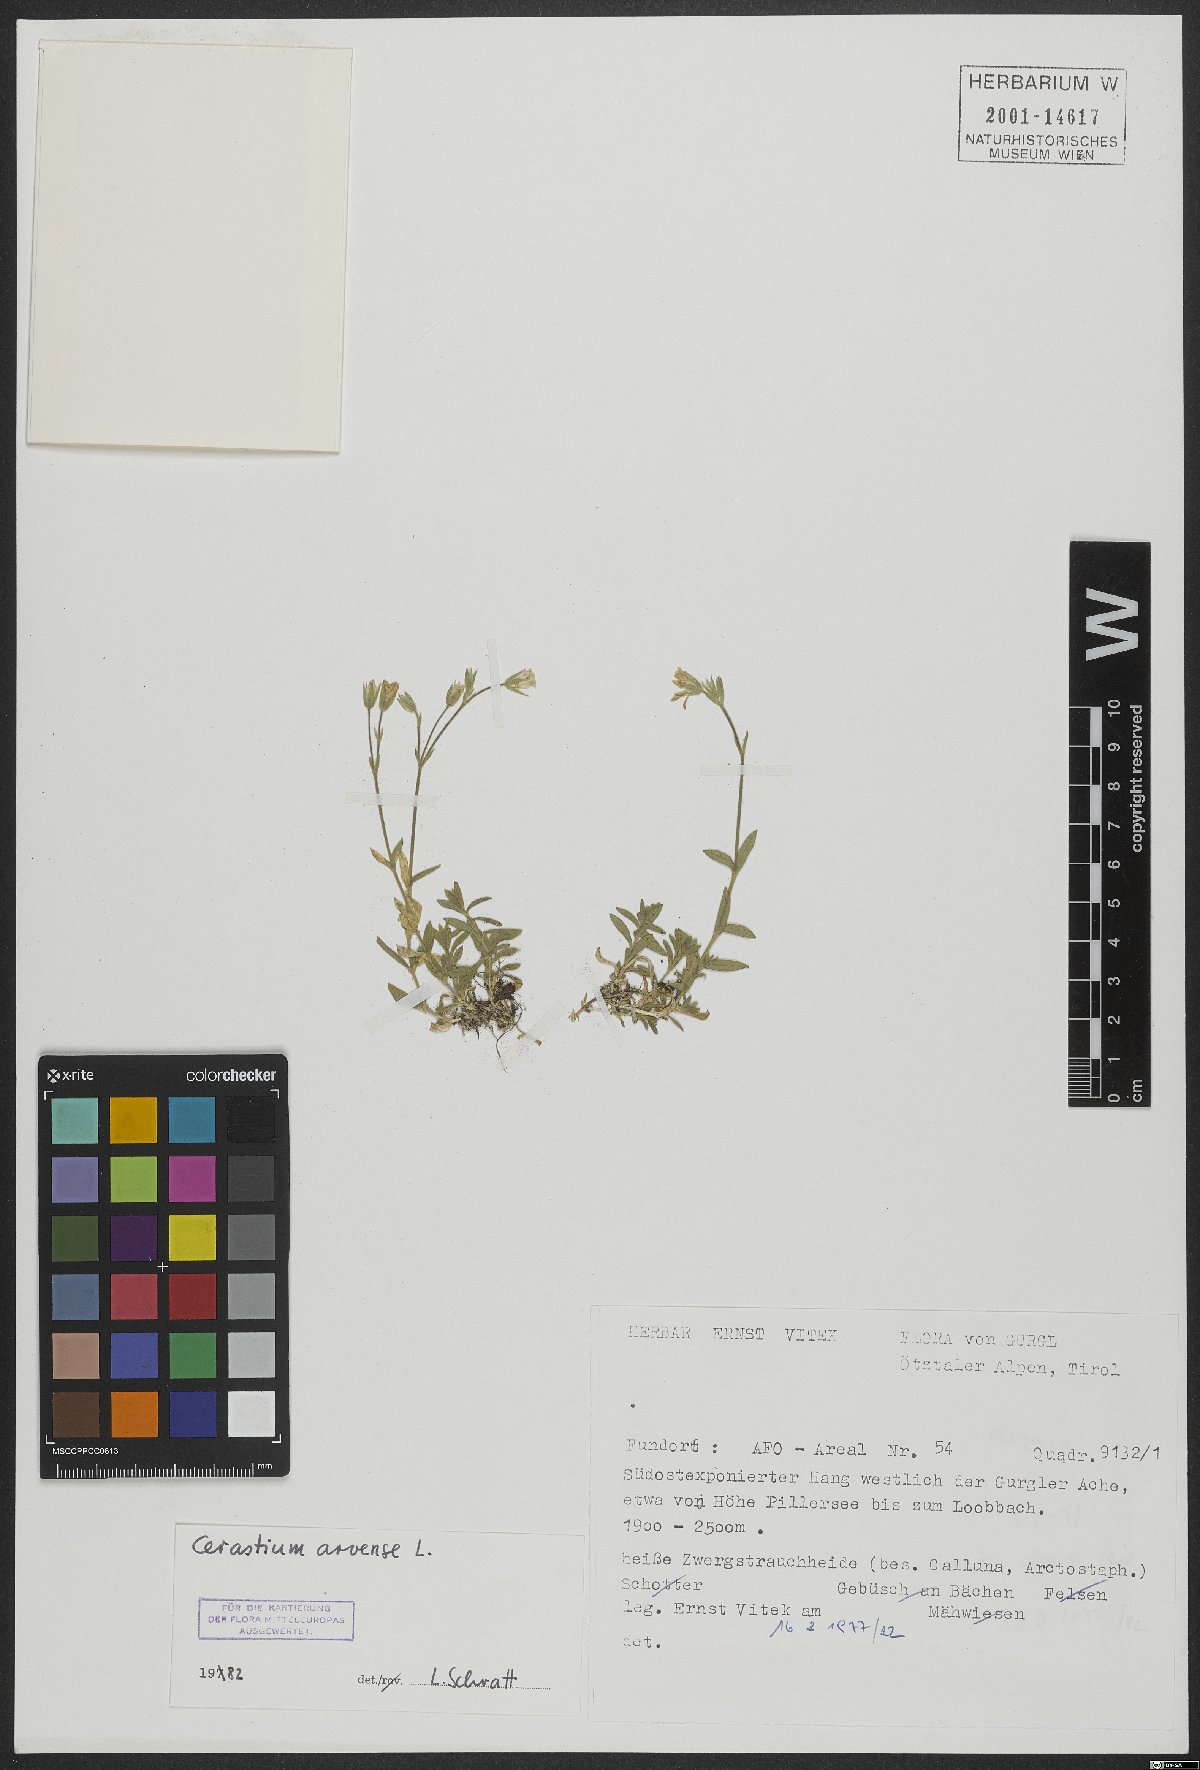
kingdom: Plantae
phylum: Tracheophyta
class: Magnoliopsida
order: Caryophyllales
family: Caryophyllaceae
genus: Cerastium
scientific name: Cerastium arvense
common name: Field mouse-ear
